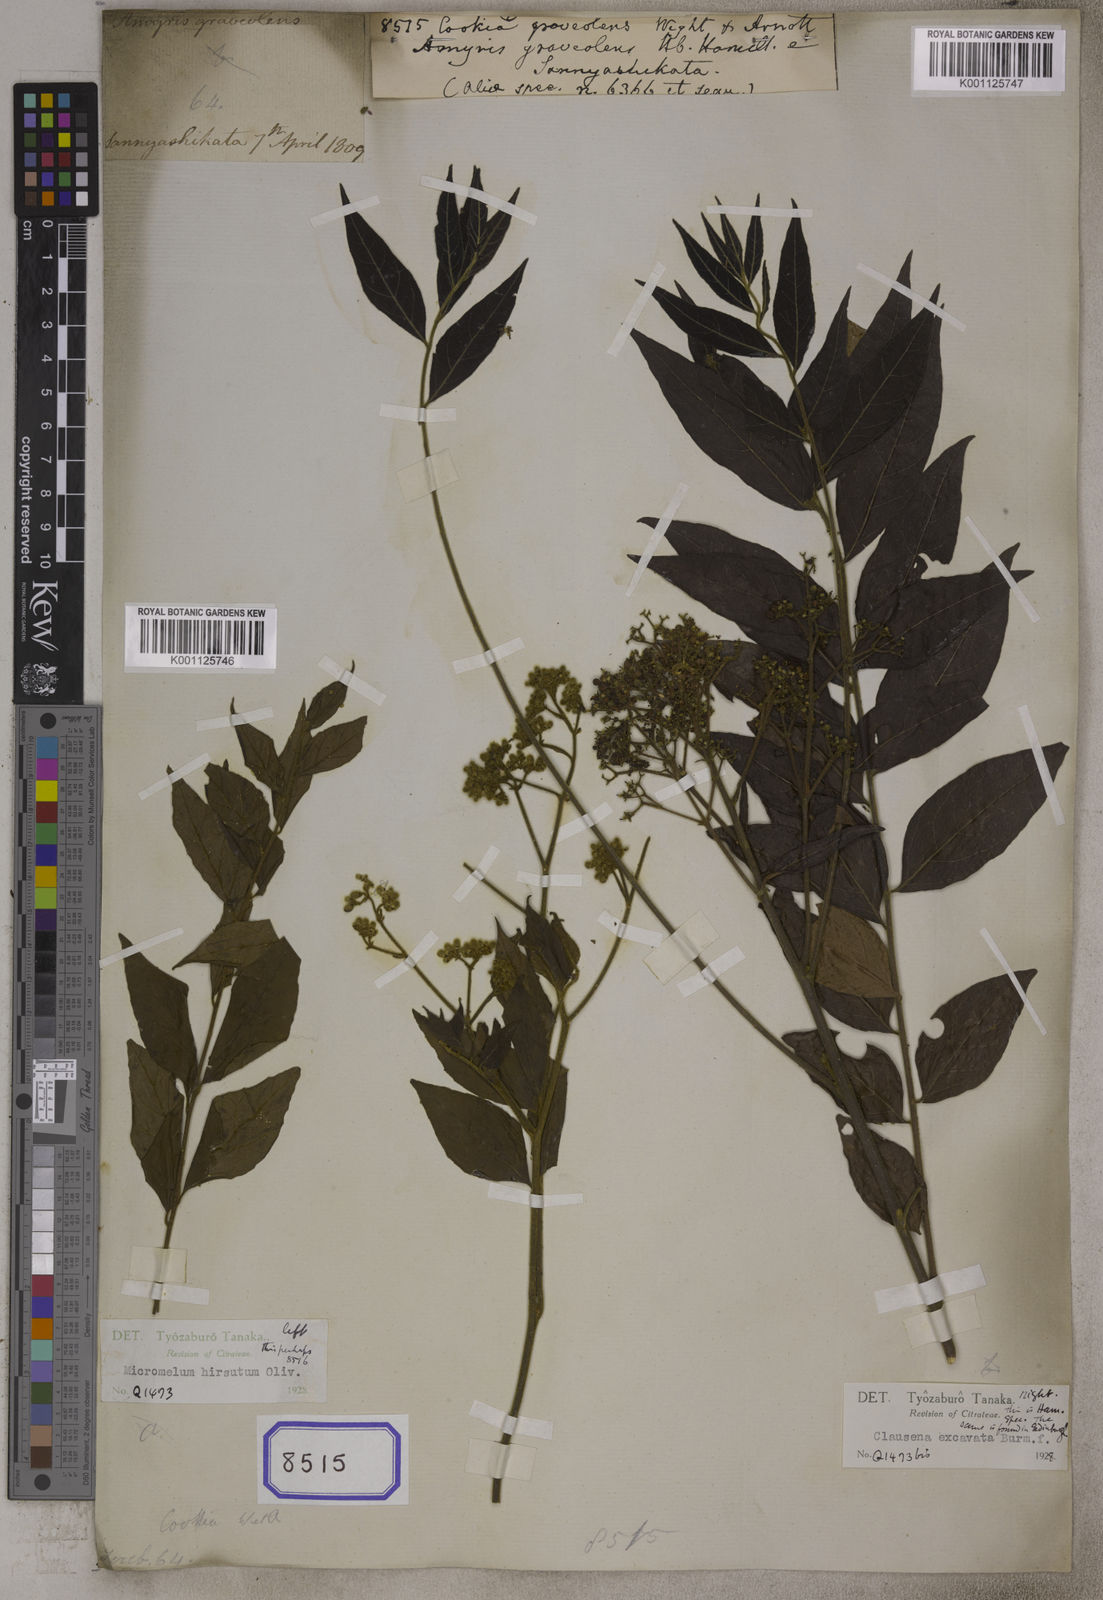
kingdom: Plantae
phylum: Tracheophyta
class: Magnoliopsida
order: Sapindales
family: Rutaceae
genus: Clausena
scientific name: Clausena excavata
